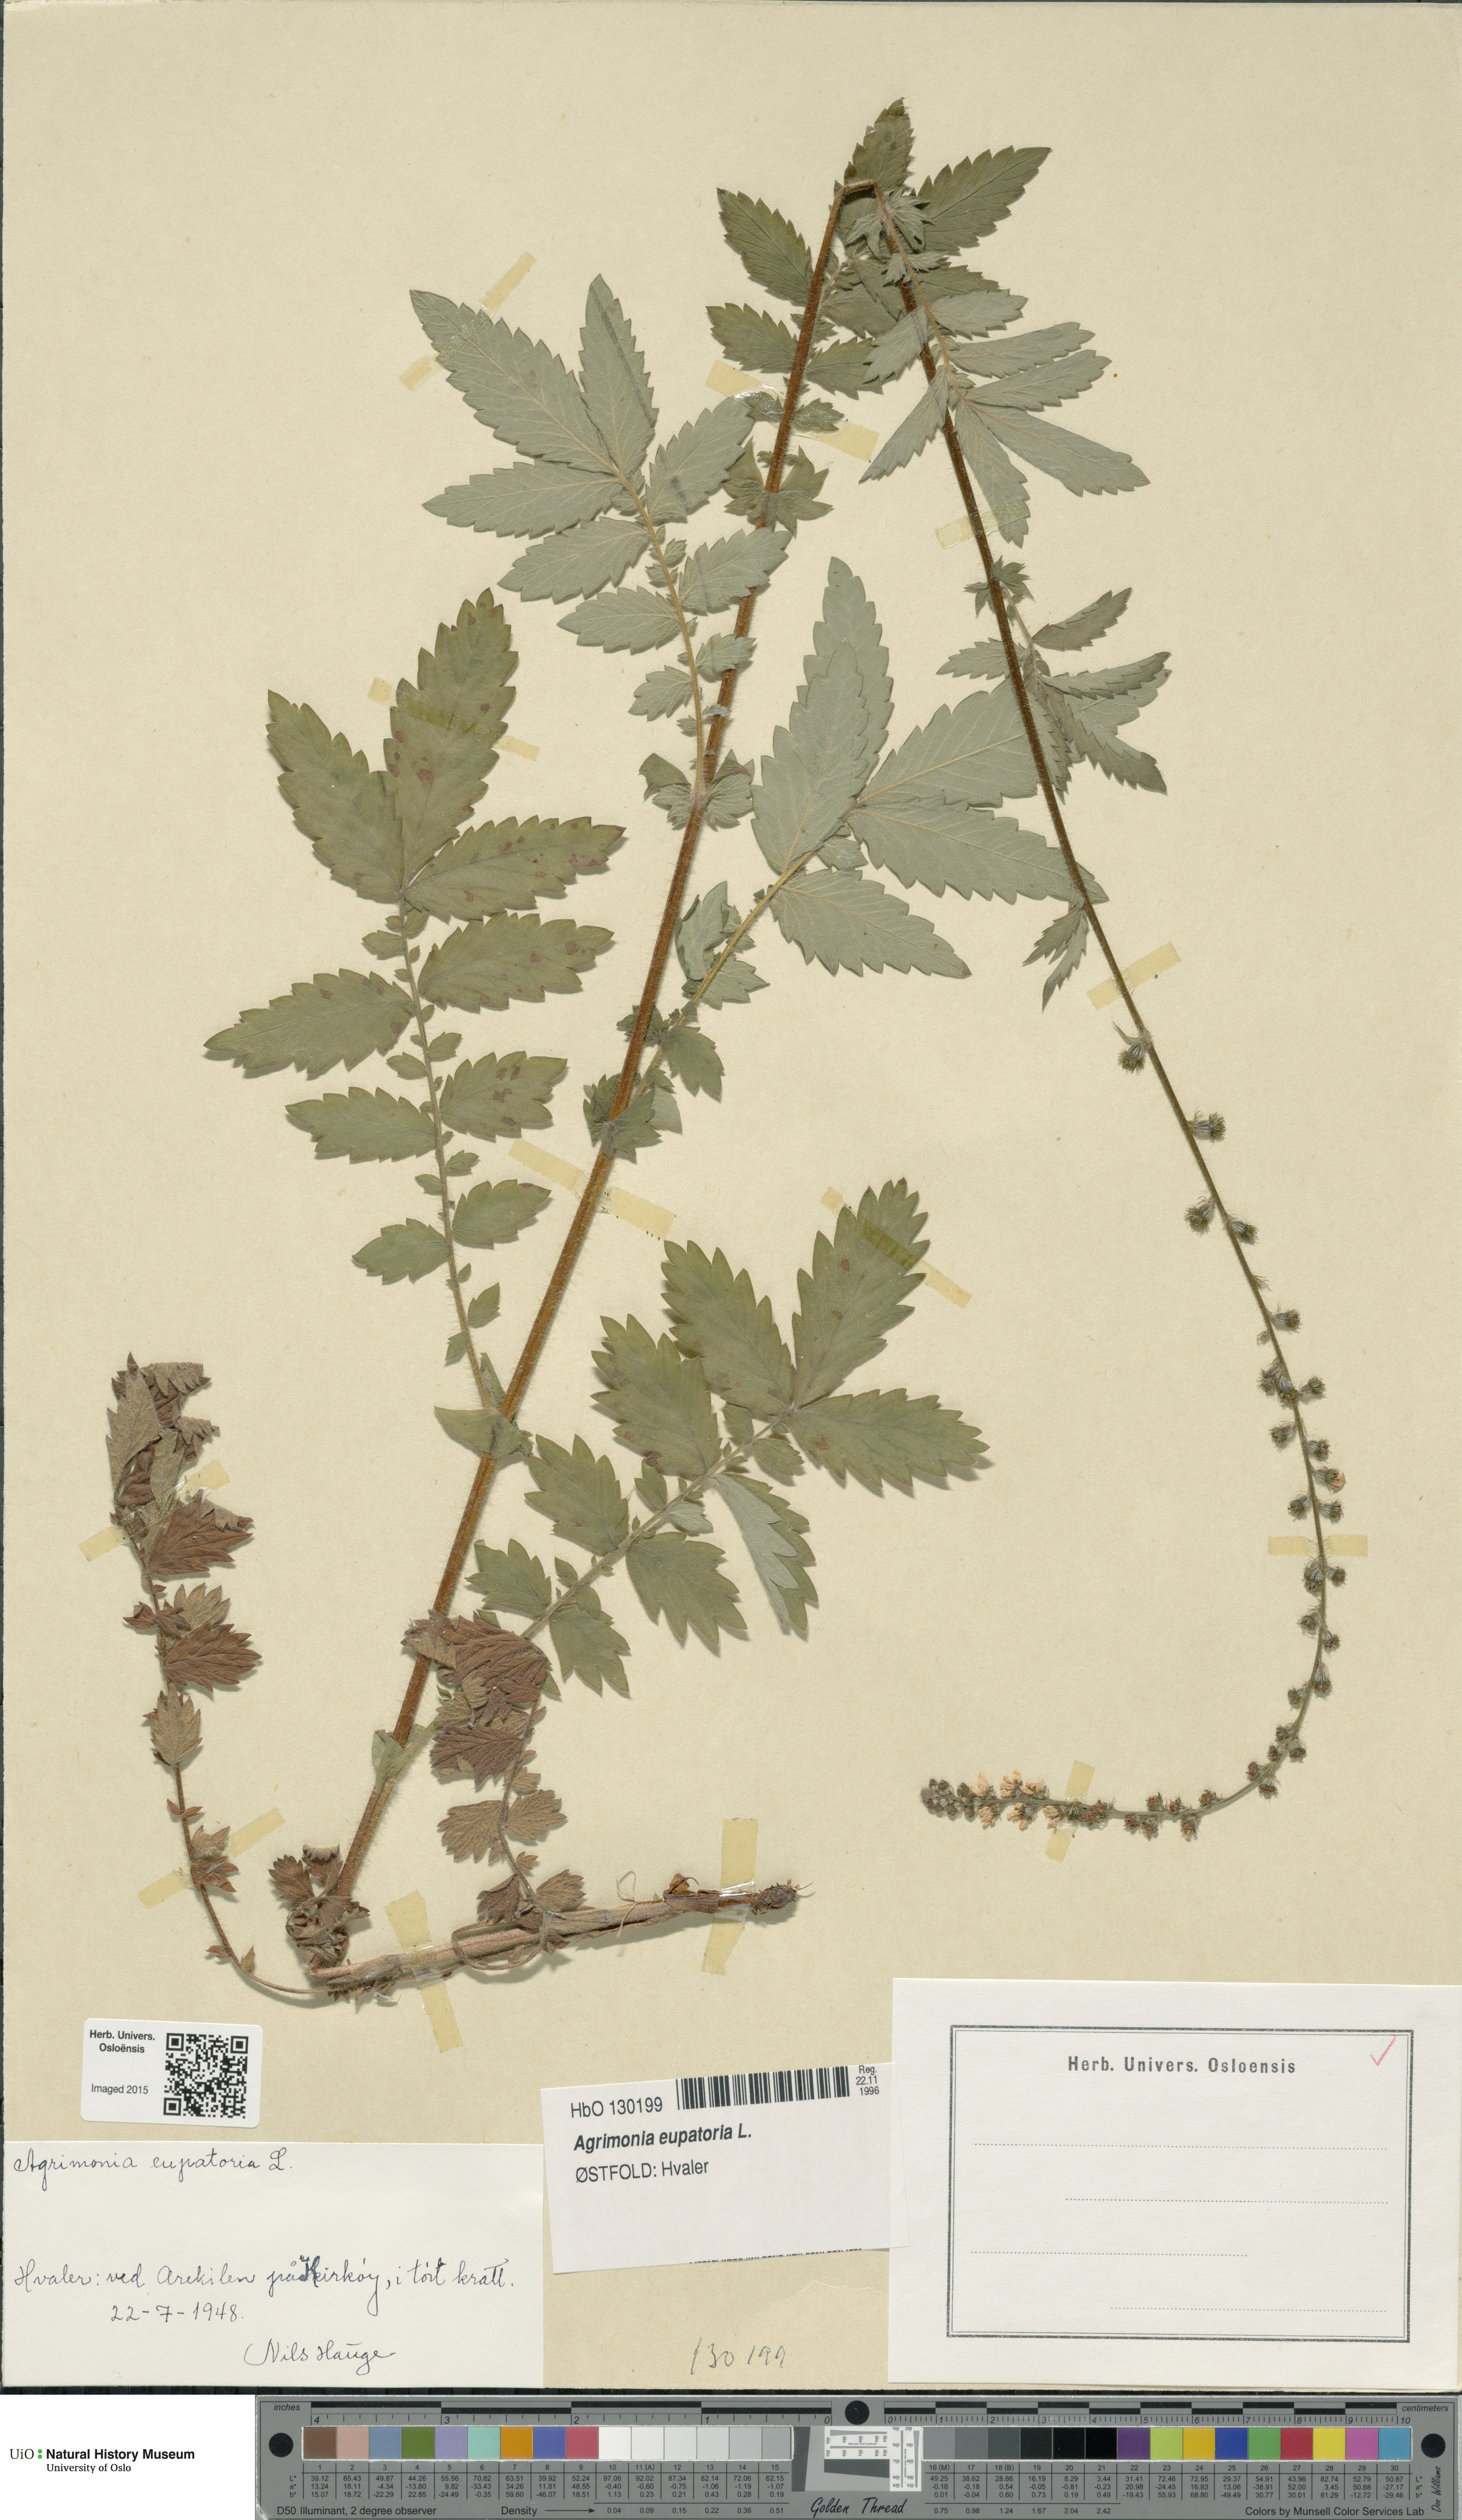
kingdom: Plantae
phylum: Tracheophyta
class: Magnoliopsida
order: Rosales
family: Rosaceae
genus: Agrimonia
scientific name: Agrimonia eupatoria
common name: Agrimony
